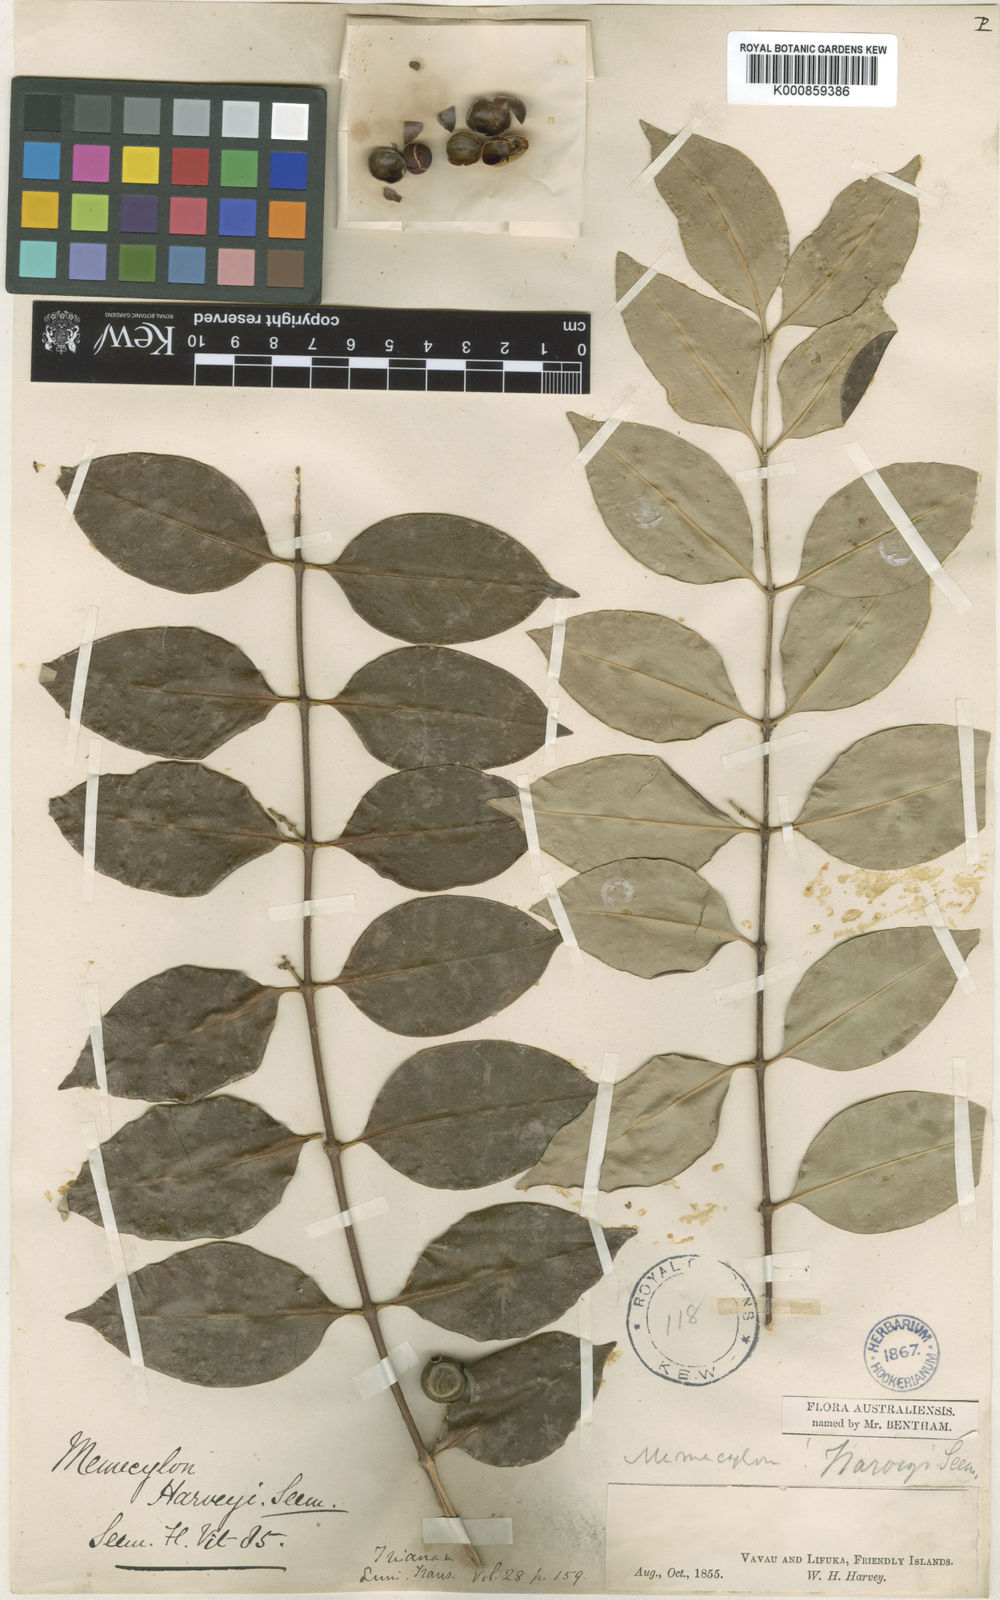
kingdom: Plantae
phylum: Tracheophyta
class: Magnoliopsida
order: Myrtales
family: Melastomataceae
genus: Memecylon
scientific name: Memecylon vitiense
